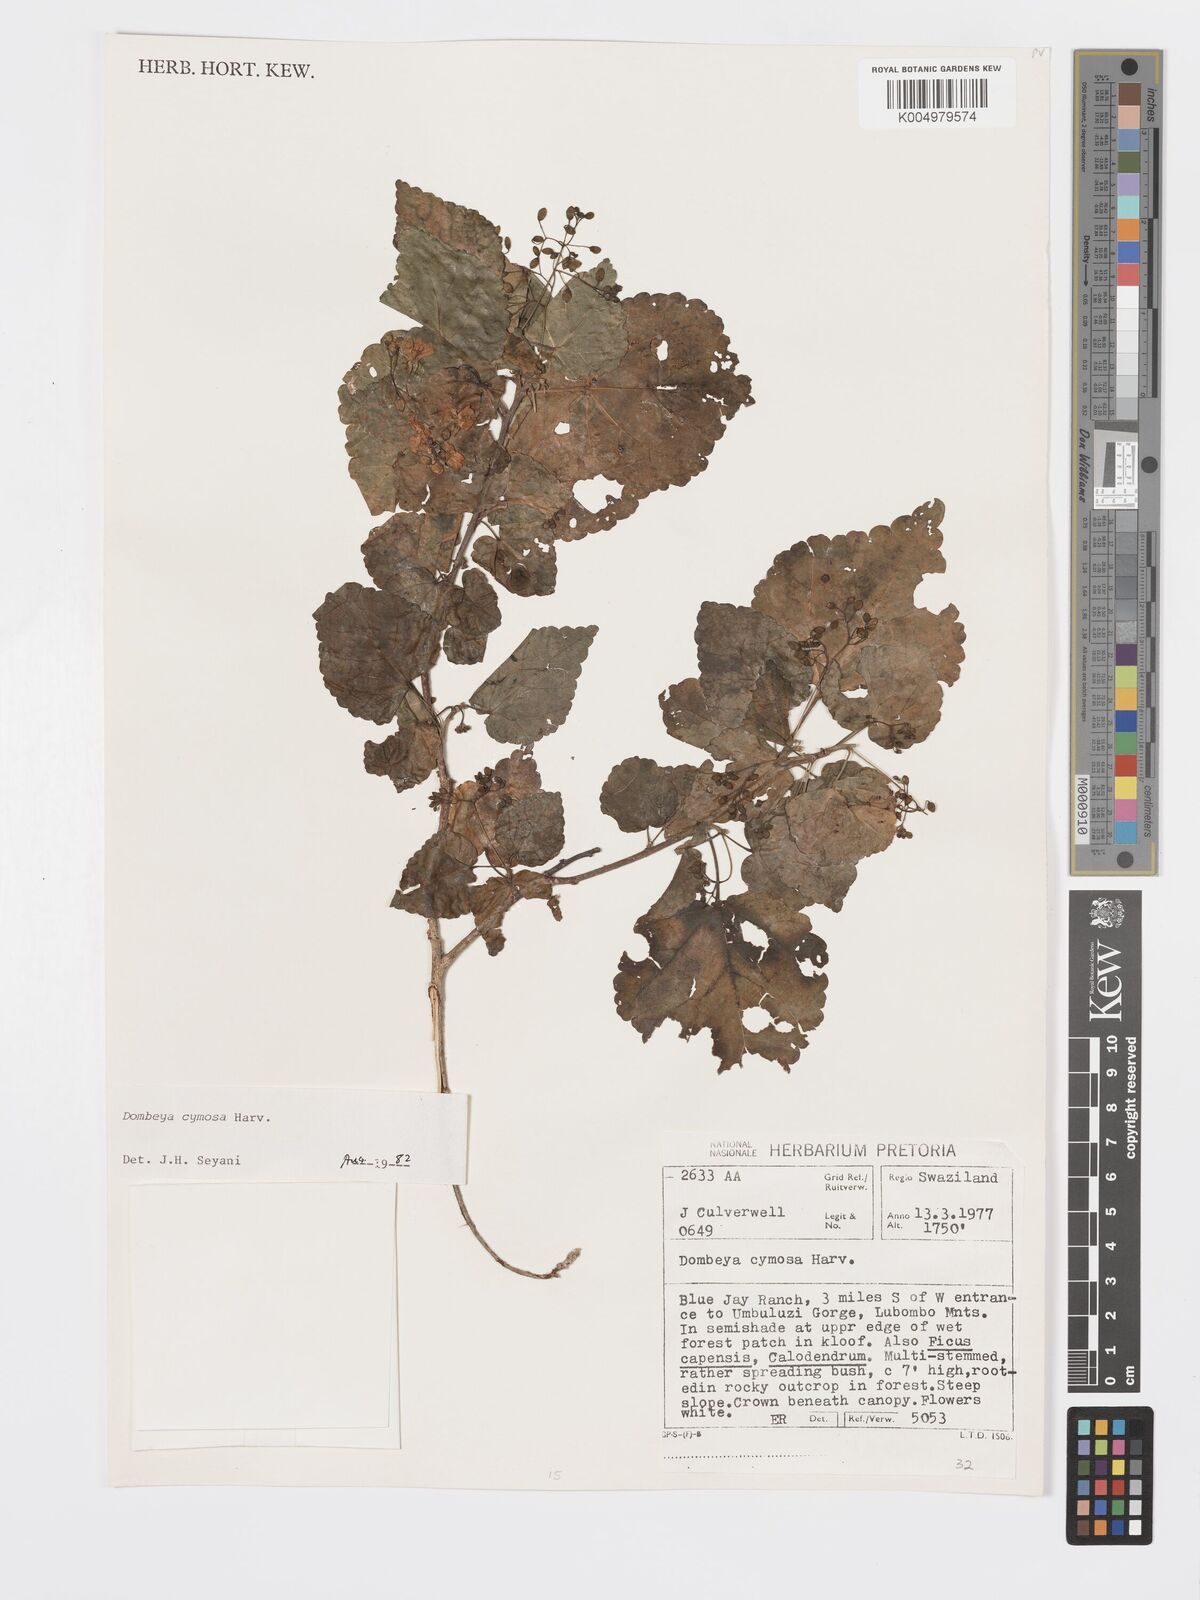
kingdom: Plantae
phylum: Tracheophyta
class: Magnoliopsida
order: Malvales
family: Malvaceae
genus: Dombeya
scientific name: Dombeya cymosa
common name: Hairless dombeya
